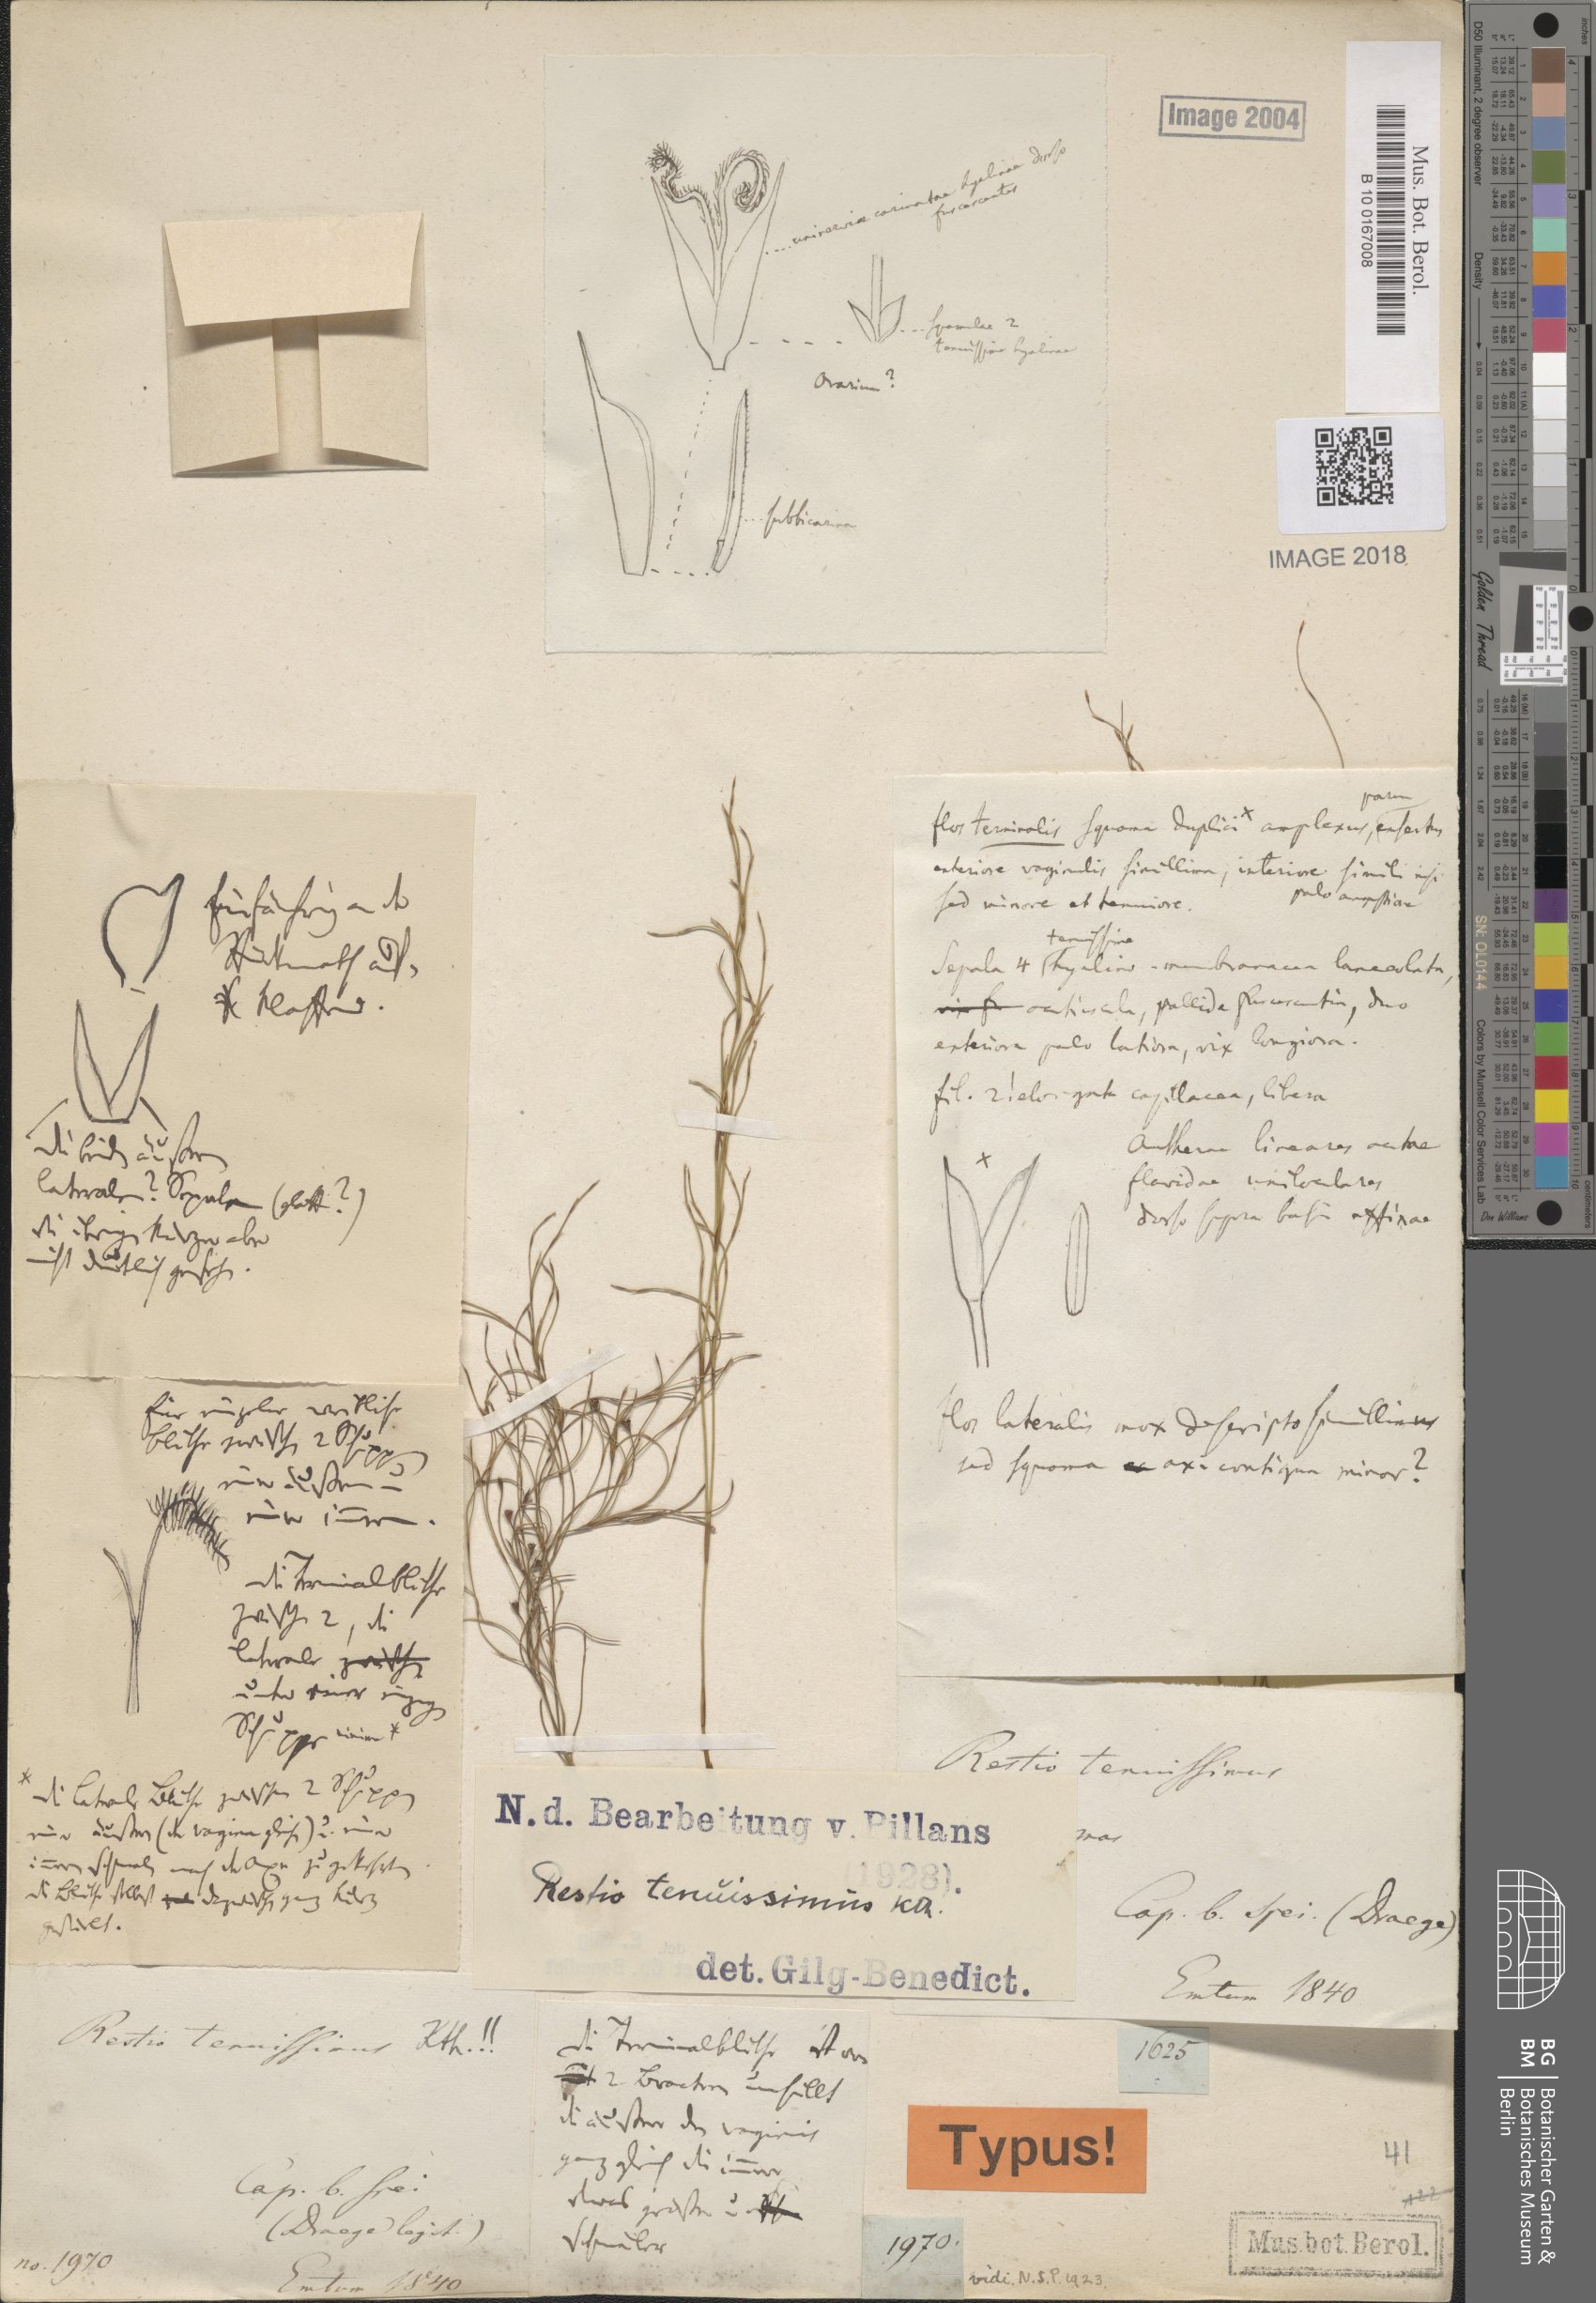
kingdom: Plantae
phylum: Tracheophyta
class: Liliopsida
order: Poales
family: Restionaceae
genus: Restio
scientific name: Restio tenuissimus
